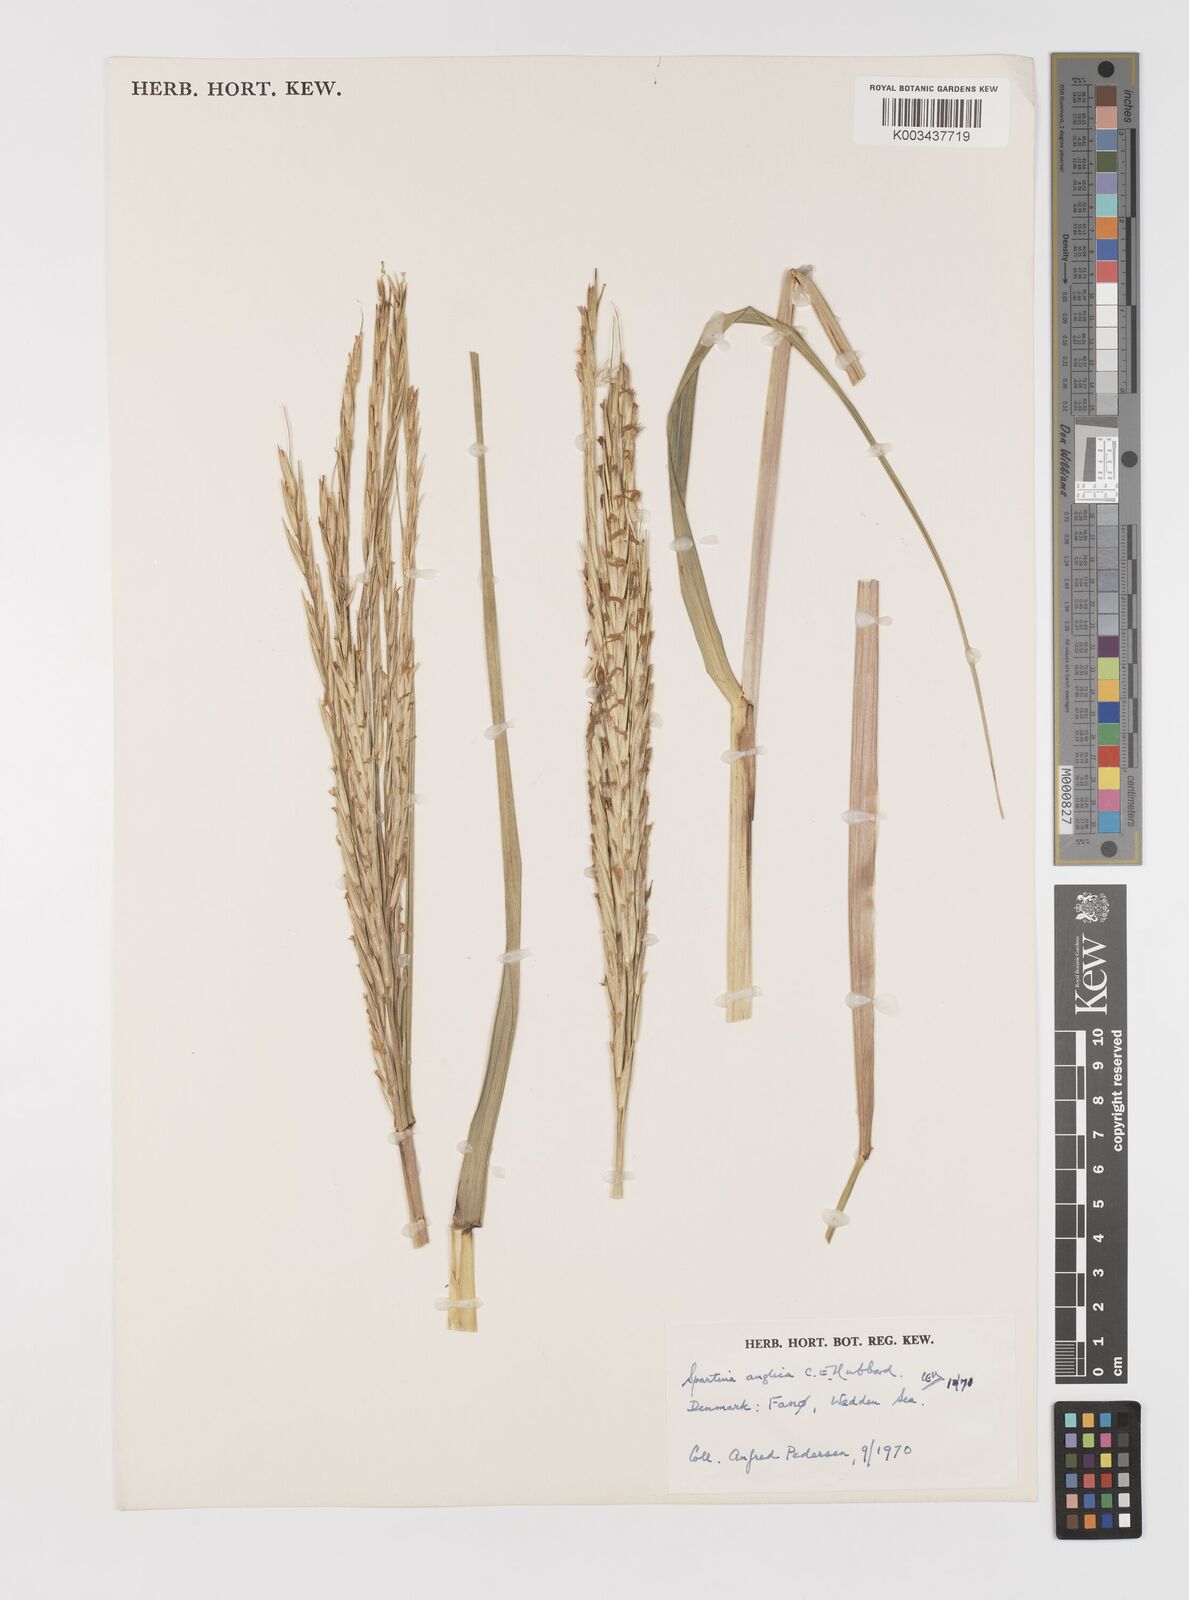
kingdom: Plantae
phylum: Tracheophyta
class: Liliopsida
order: Poales
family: Poaceae
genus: Sporobolus
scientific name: Sporobolus anglicus
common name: English cordgrass
